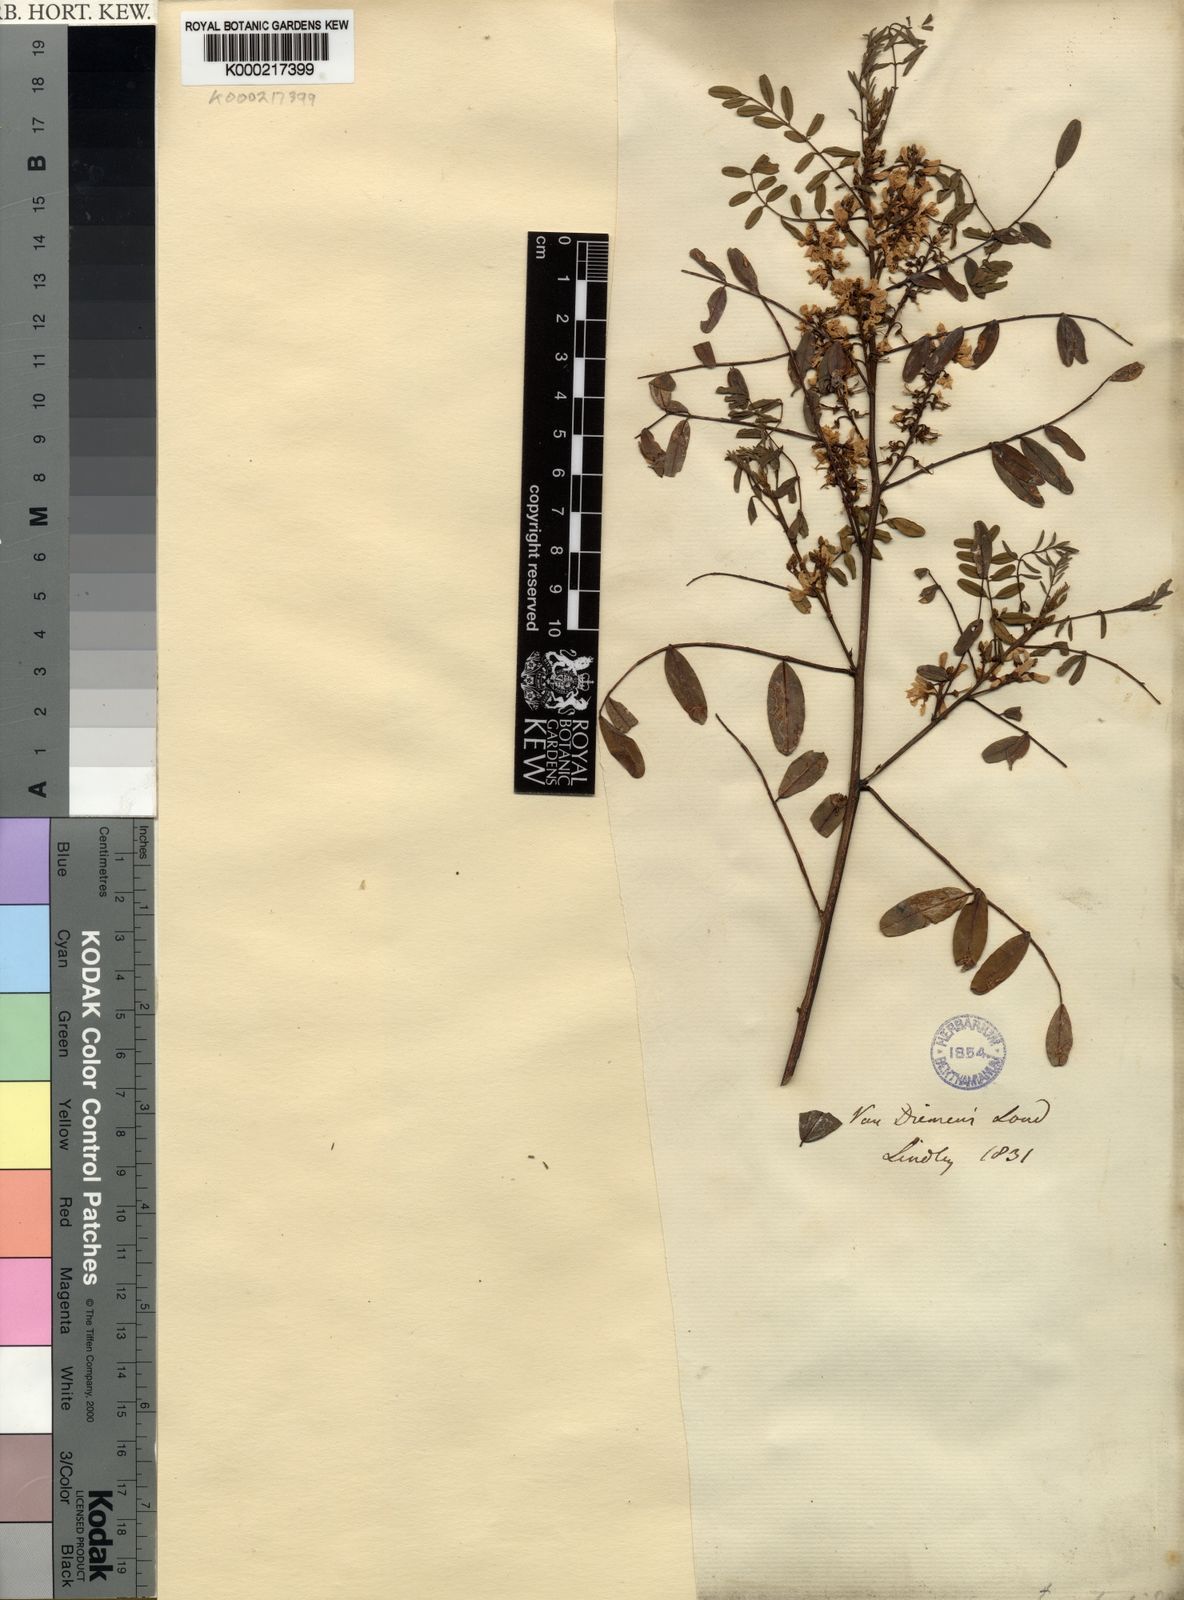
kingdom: Plantae
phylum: Tracheophyta
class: Magnoliopsida
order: Fabales
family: Fabaceae
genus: Indigofera
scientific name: Indigofera
